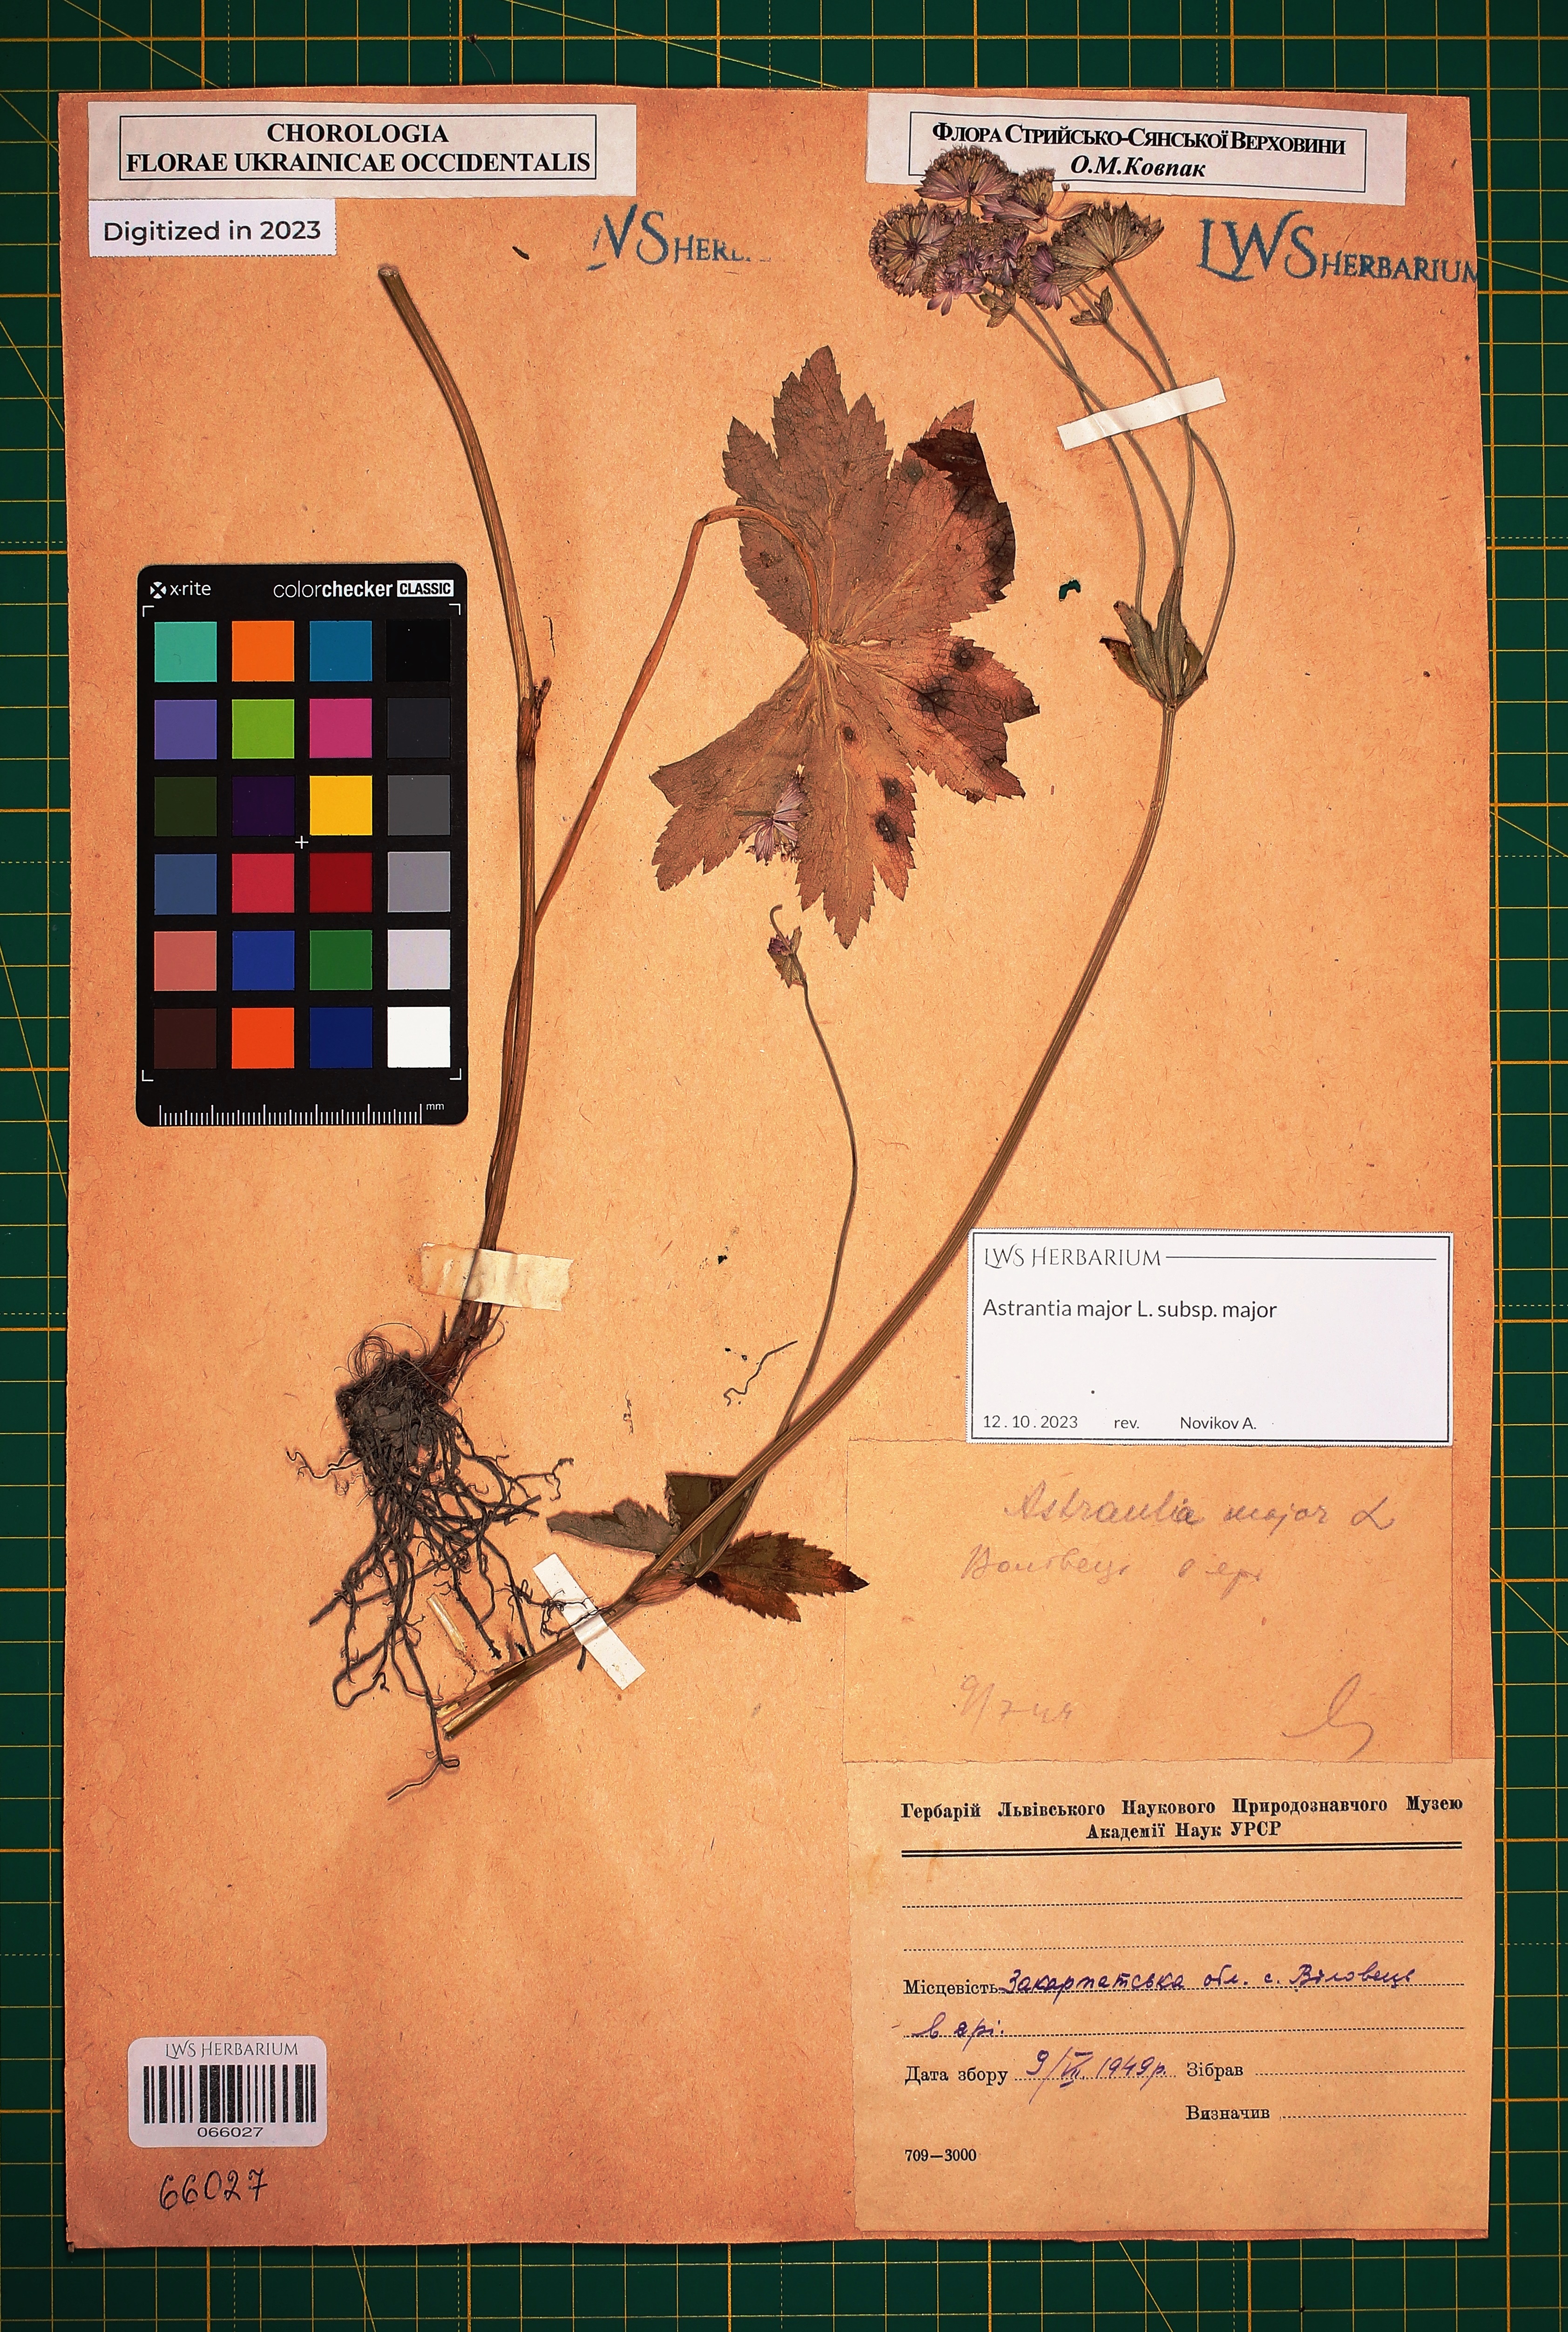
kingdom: Plantae
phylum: Tracheophyta
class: Magnoliopsida
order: Apiales
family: Apiaceae
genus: Astrantia
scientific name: Astrantia major
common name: Greater masterwort
